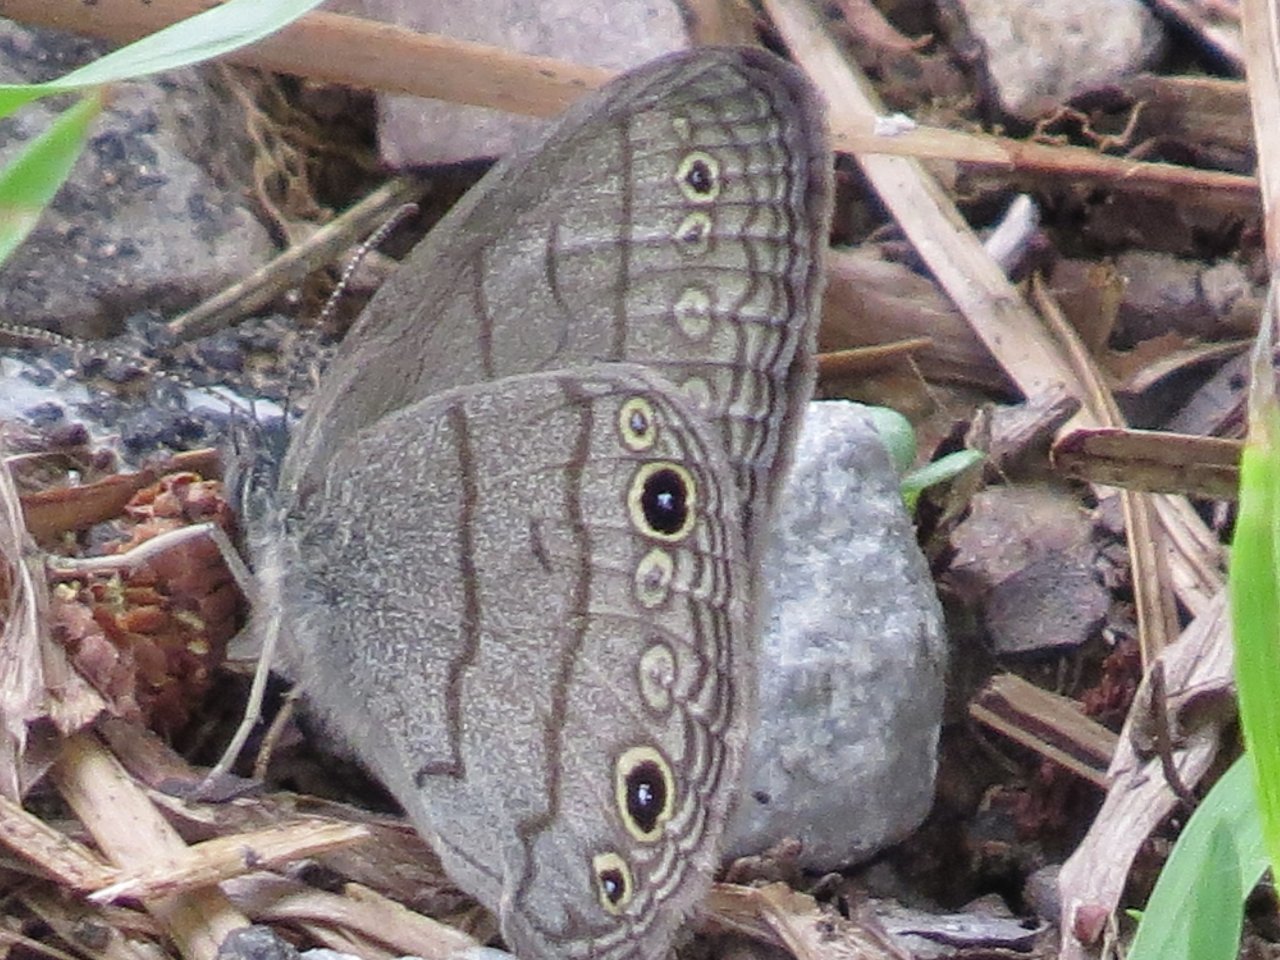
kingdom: Animalia
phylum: Arthropoda
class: Insecta
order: Lepidoptera
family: Nymphalidae
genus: Hermeuptychia
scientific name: Hermeuptychia hermes
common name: Carolina Satyr
